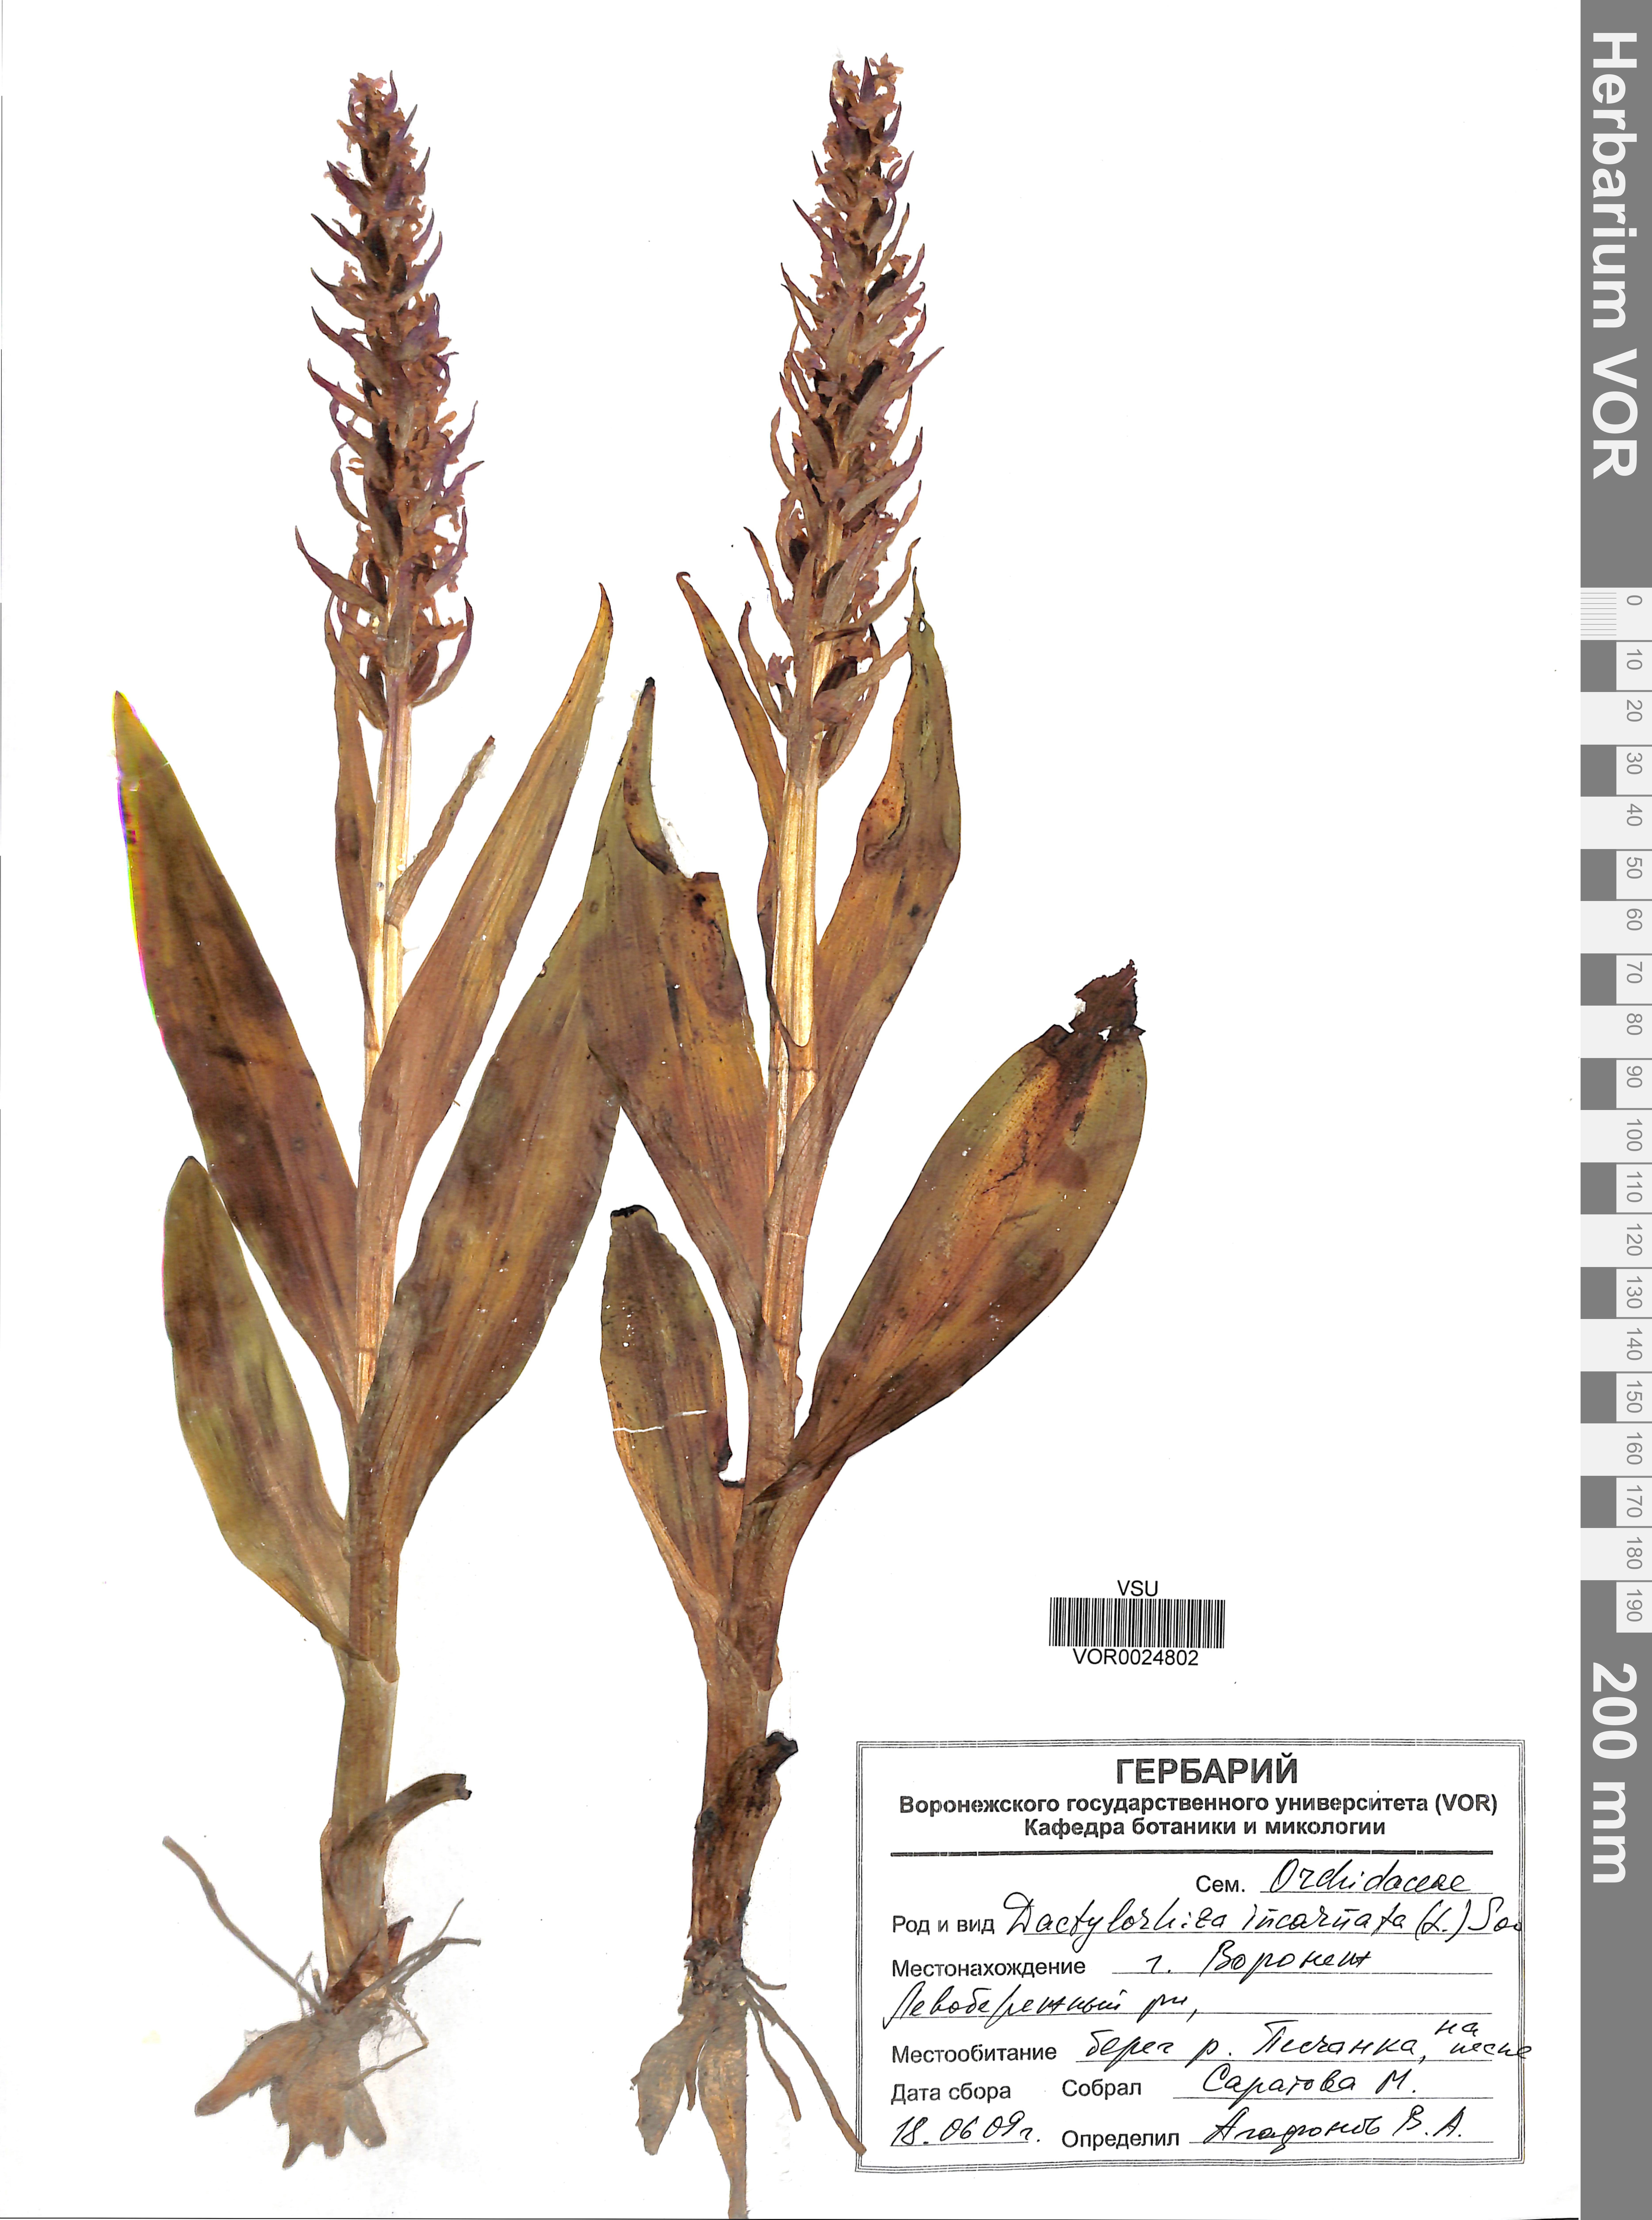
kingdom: Plantae
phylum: Tracheophyta
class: Liliopsida
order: Asparagales
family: Orchidaceae
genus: Dactylorhiza
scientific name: Dactylorhiza incarnata
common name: Early marsh-orchid
